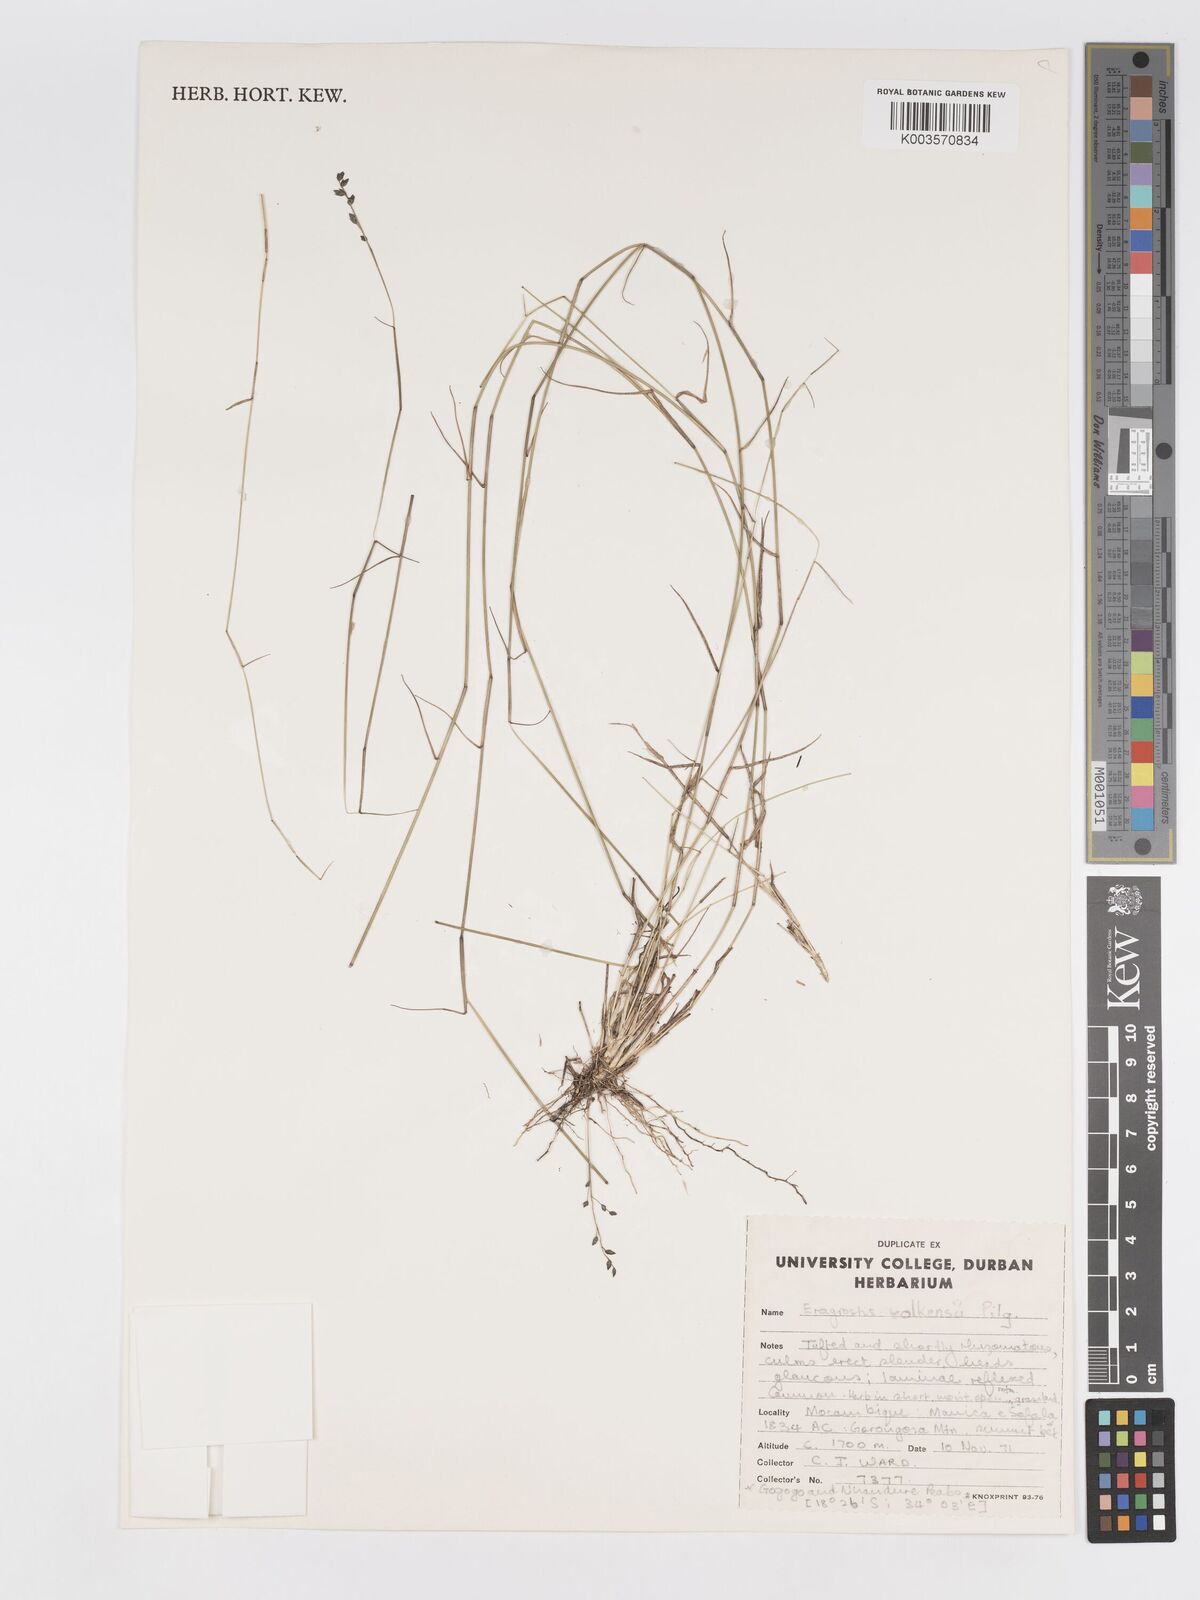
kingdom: Plantae
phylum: Tracheophyta
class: Liliopsida
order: Poales
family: Poaceae
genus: Eragrostis
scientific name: Eragrostis volkensii
